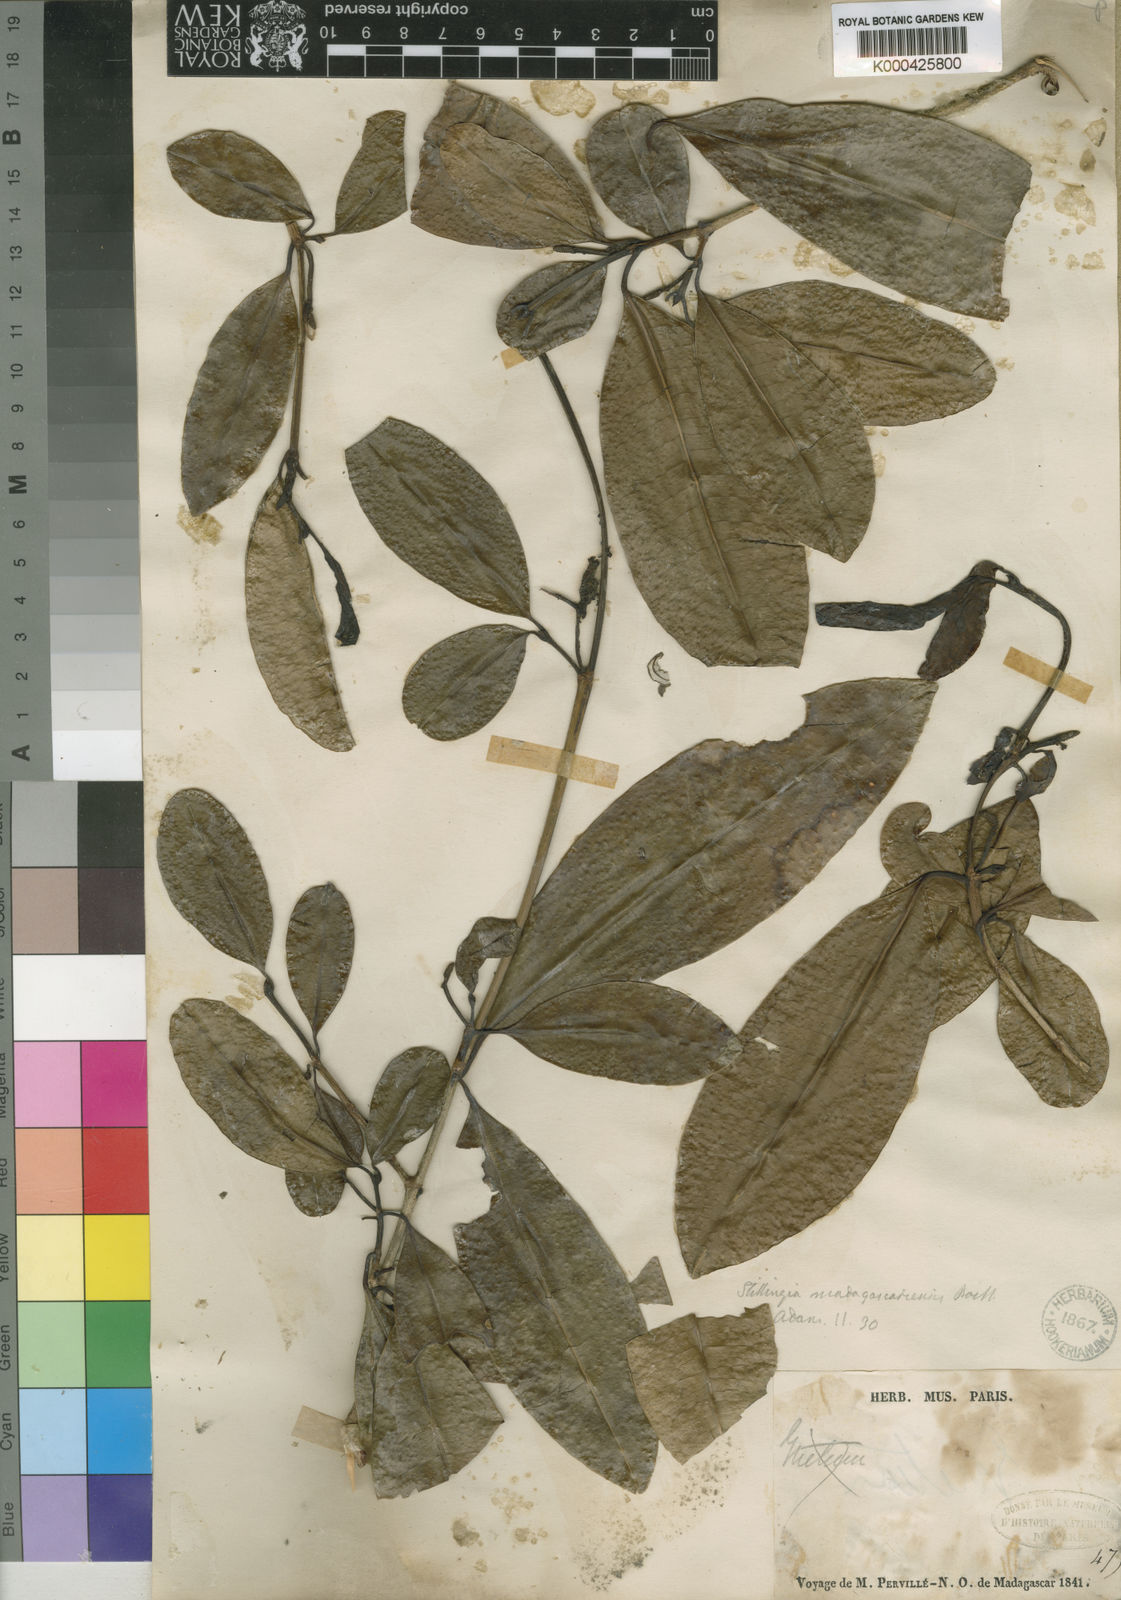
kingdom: Plantae
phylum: Tracheophyta
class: Magnoliopsida
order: Malpighiales
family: Euphorbiaceae
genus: Excoecaria
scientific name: Excoecaria
